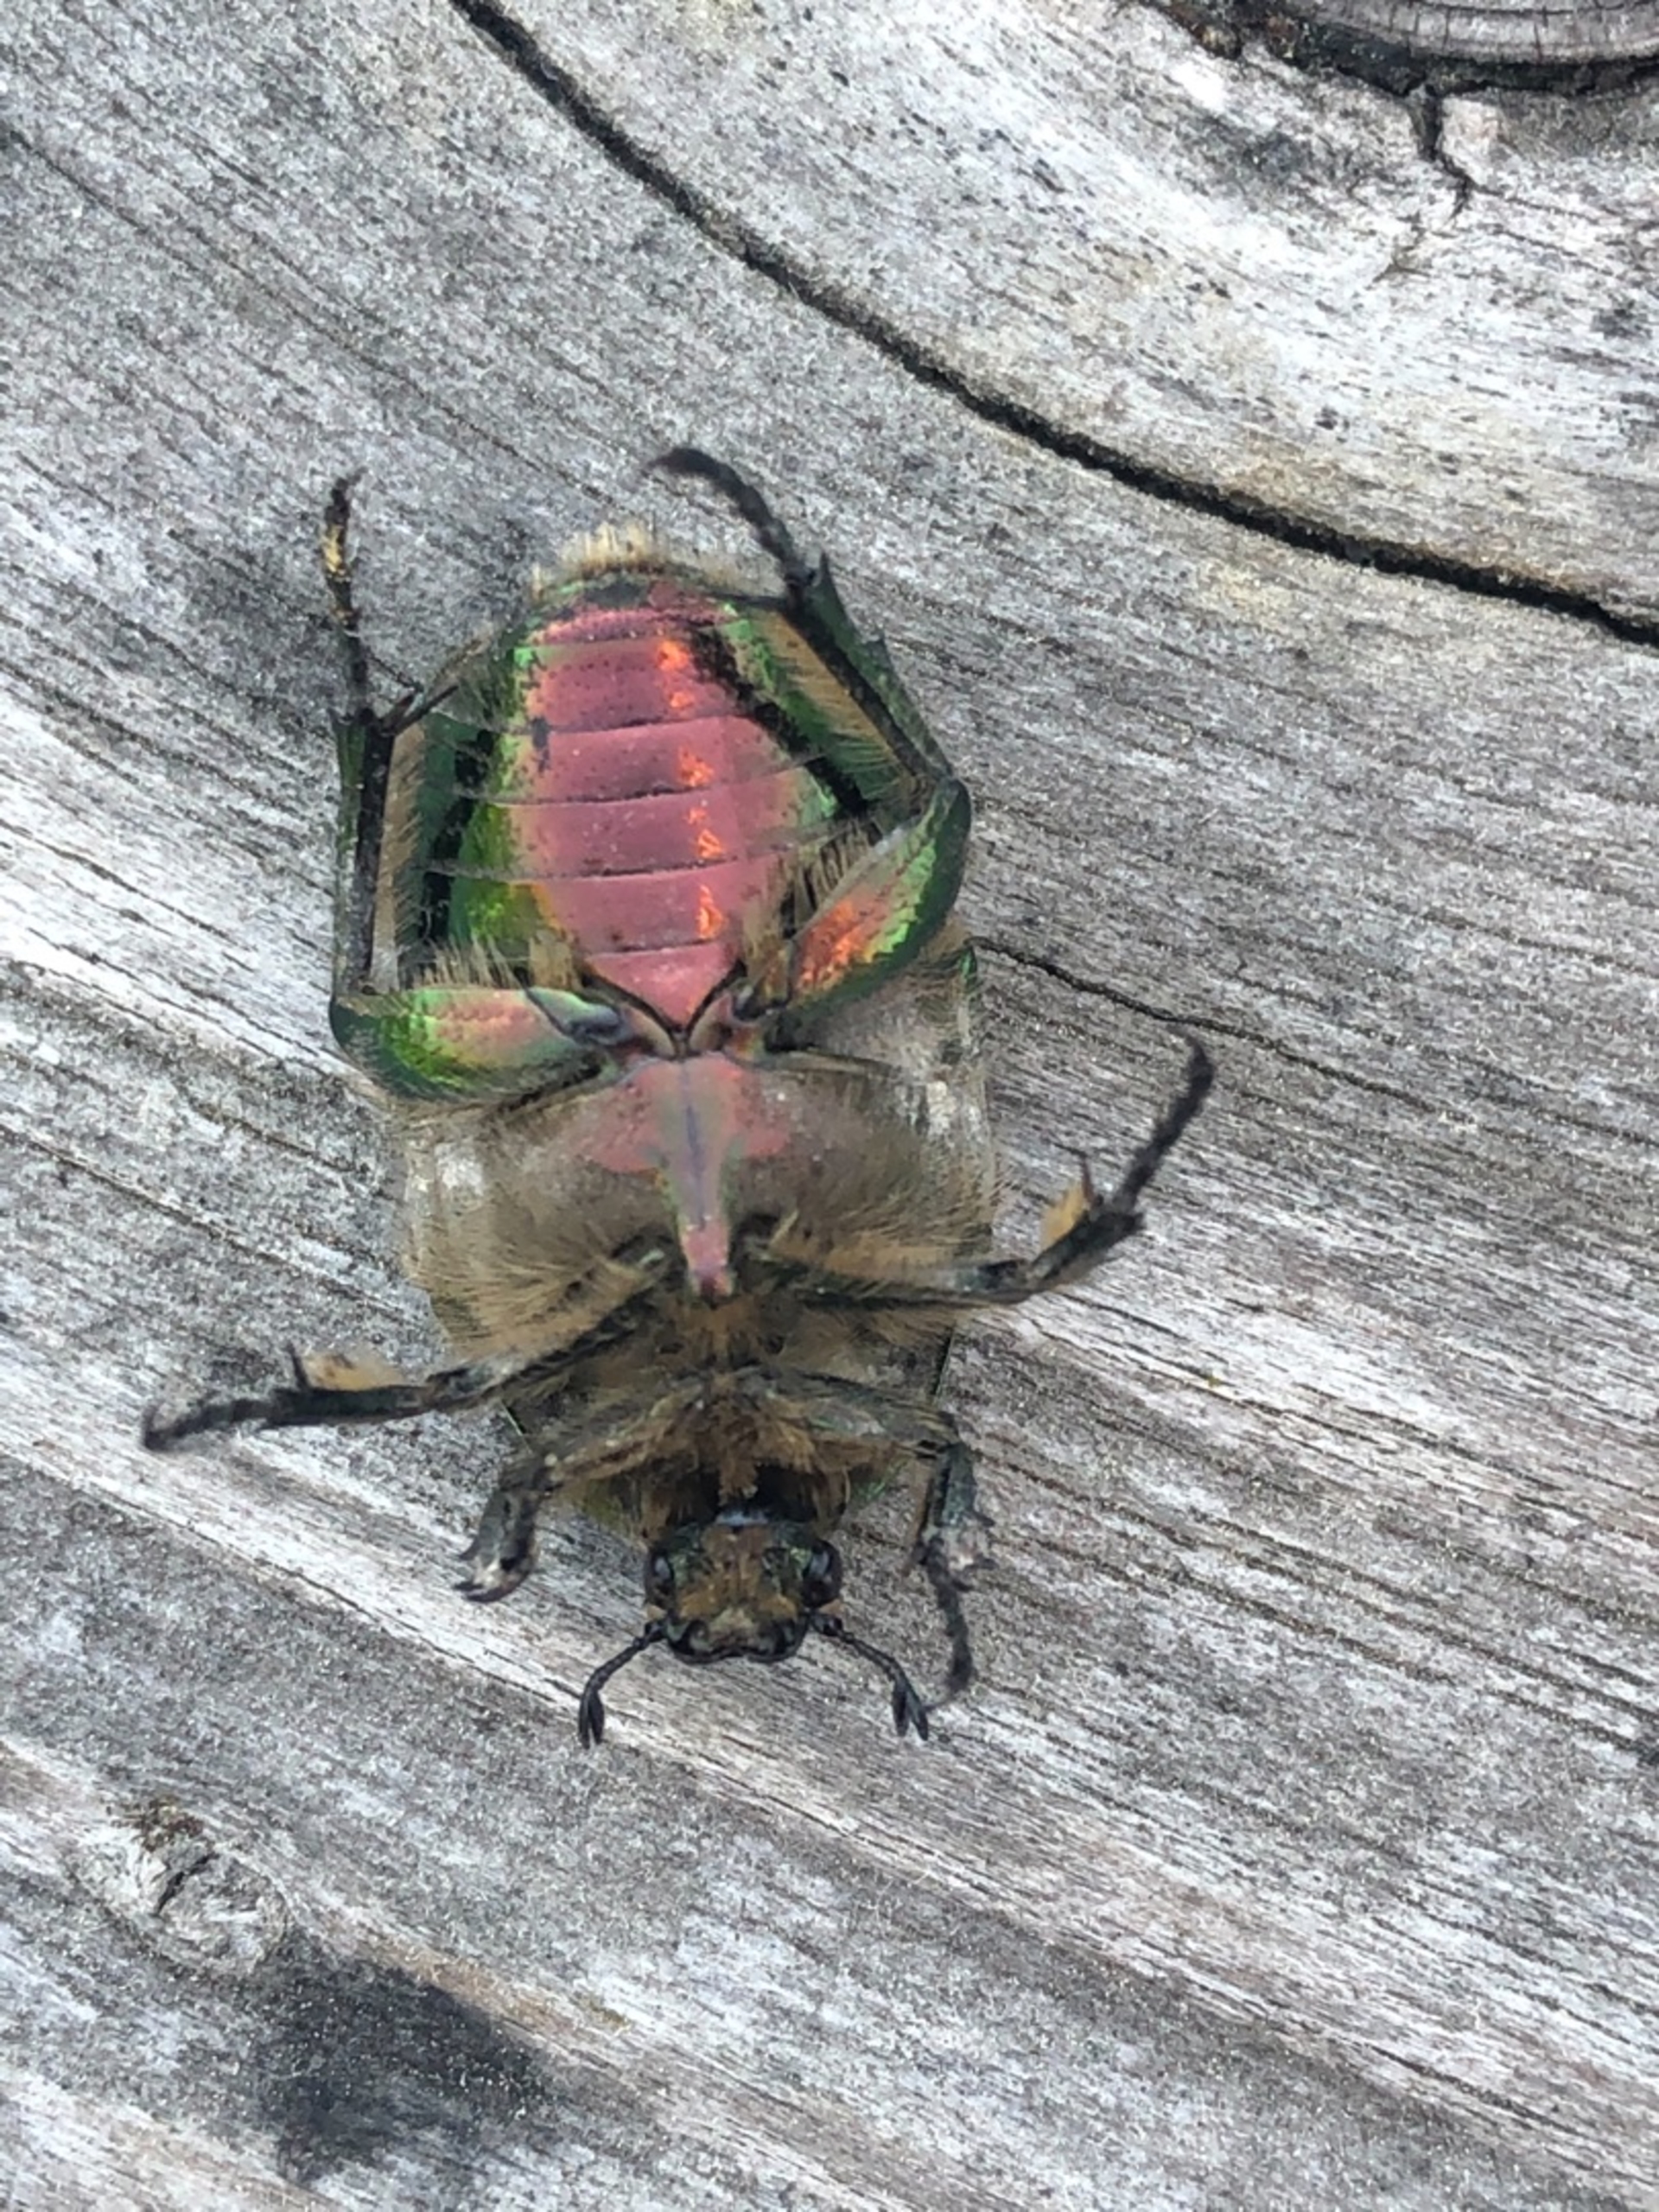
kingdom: Animalia
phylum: Arthropoda
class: Insecta
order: Coleoptera
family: Scarabaeidae
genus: Cetonia
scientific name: Cetonia aurata
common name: Grøn guldbasse
